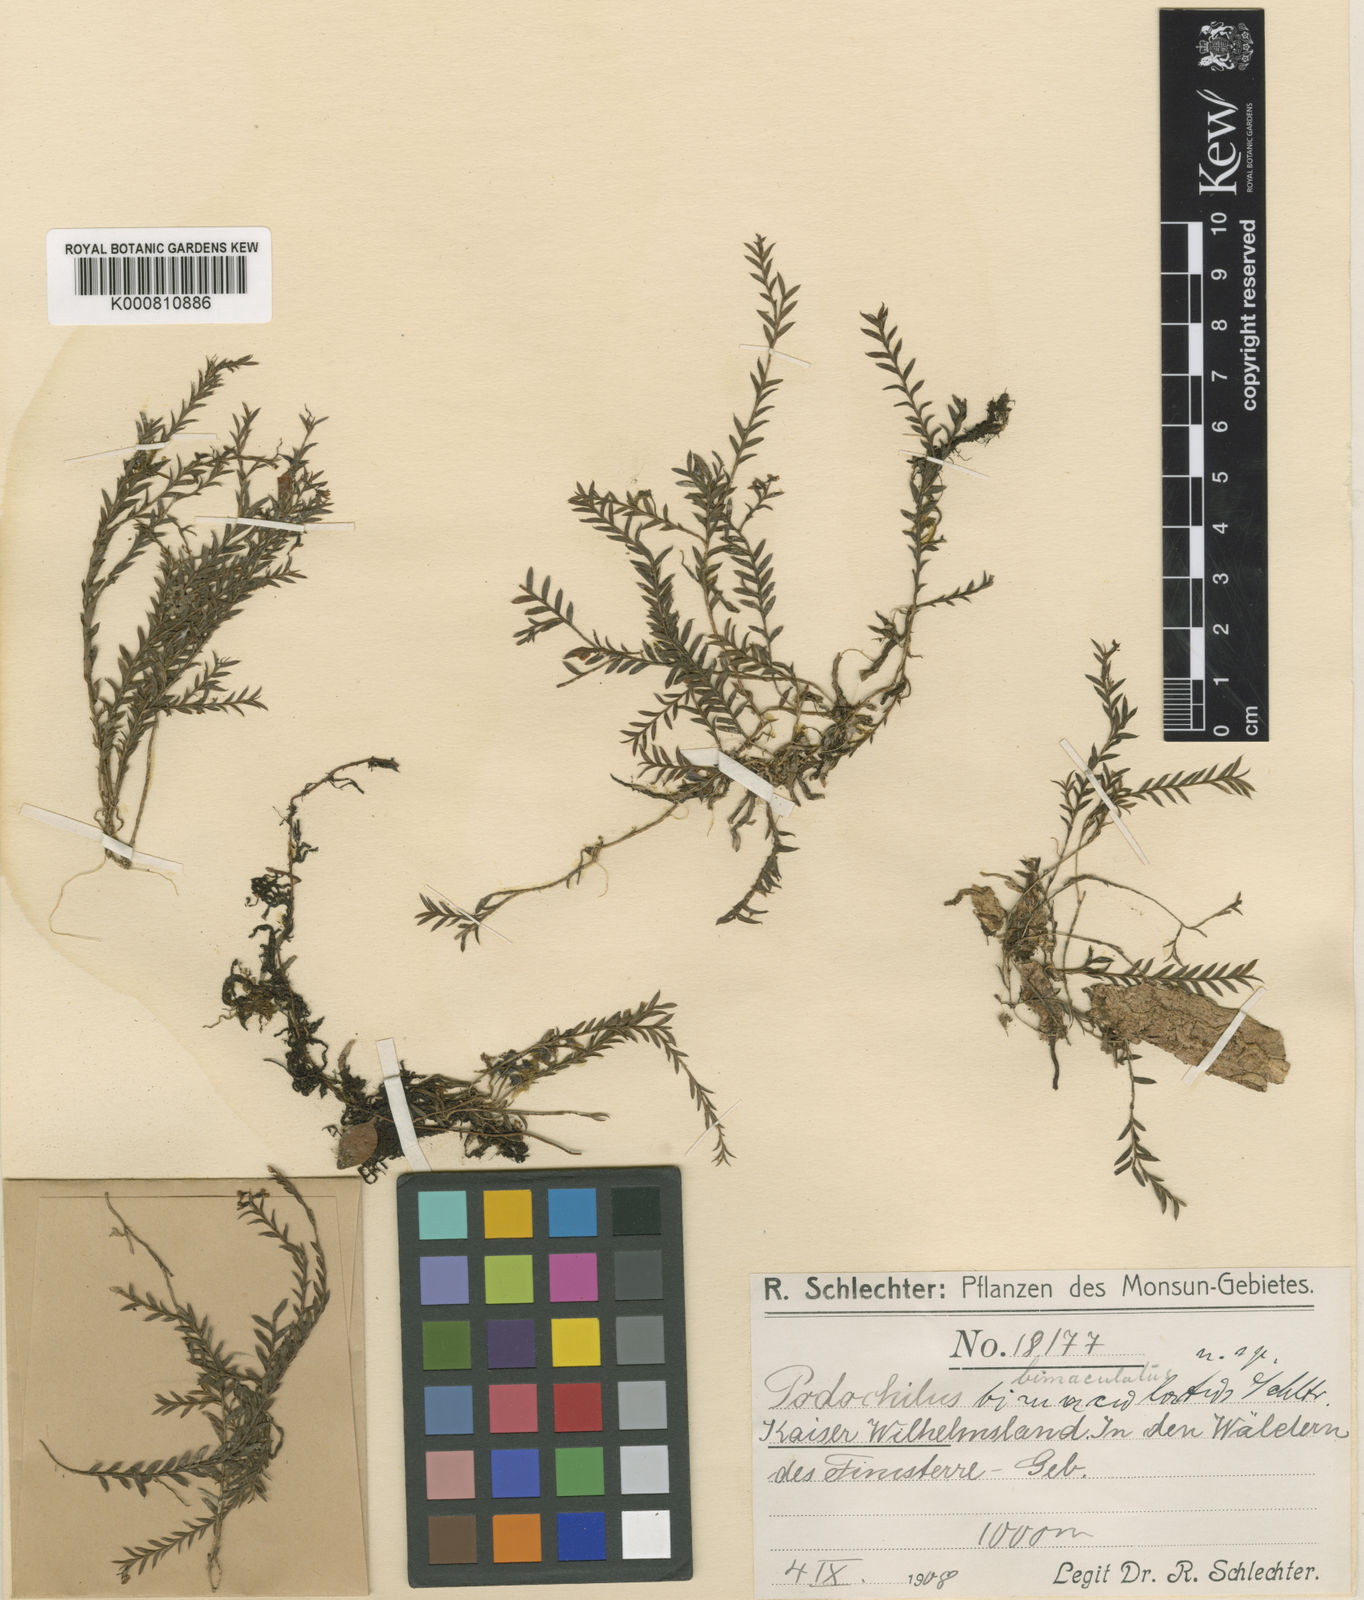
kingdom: Plantae
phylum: Tracheophyta
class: Liliopsida
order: Asparagales
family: Orchidaceae
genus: Podochilus
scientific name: Podochilus hellwigii
